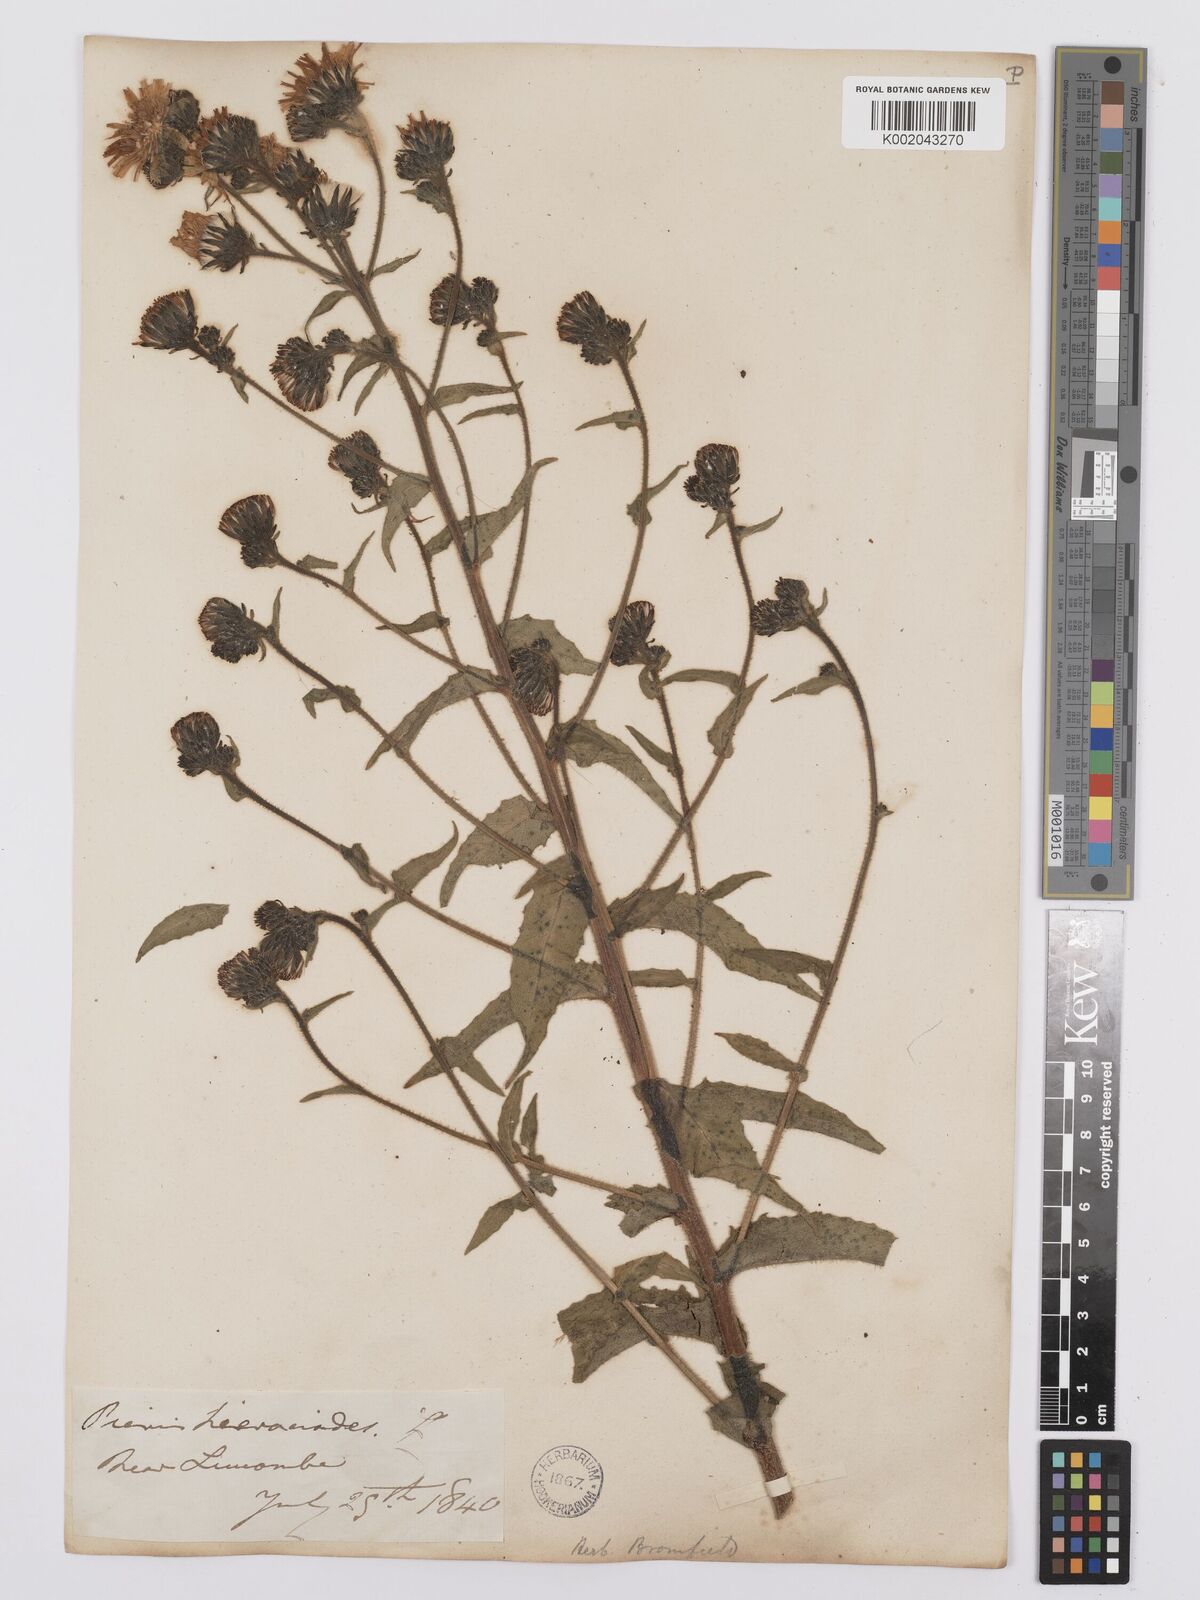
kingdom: Plantae
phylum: Tracheophyta
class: Magnoliopsida
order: Asterales
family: Asteraceae
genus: Picris
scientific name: Picris hieracioides
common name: Hawkweed oxtongue
